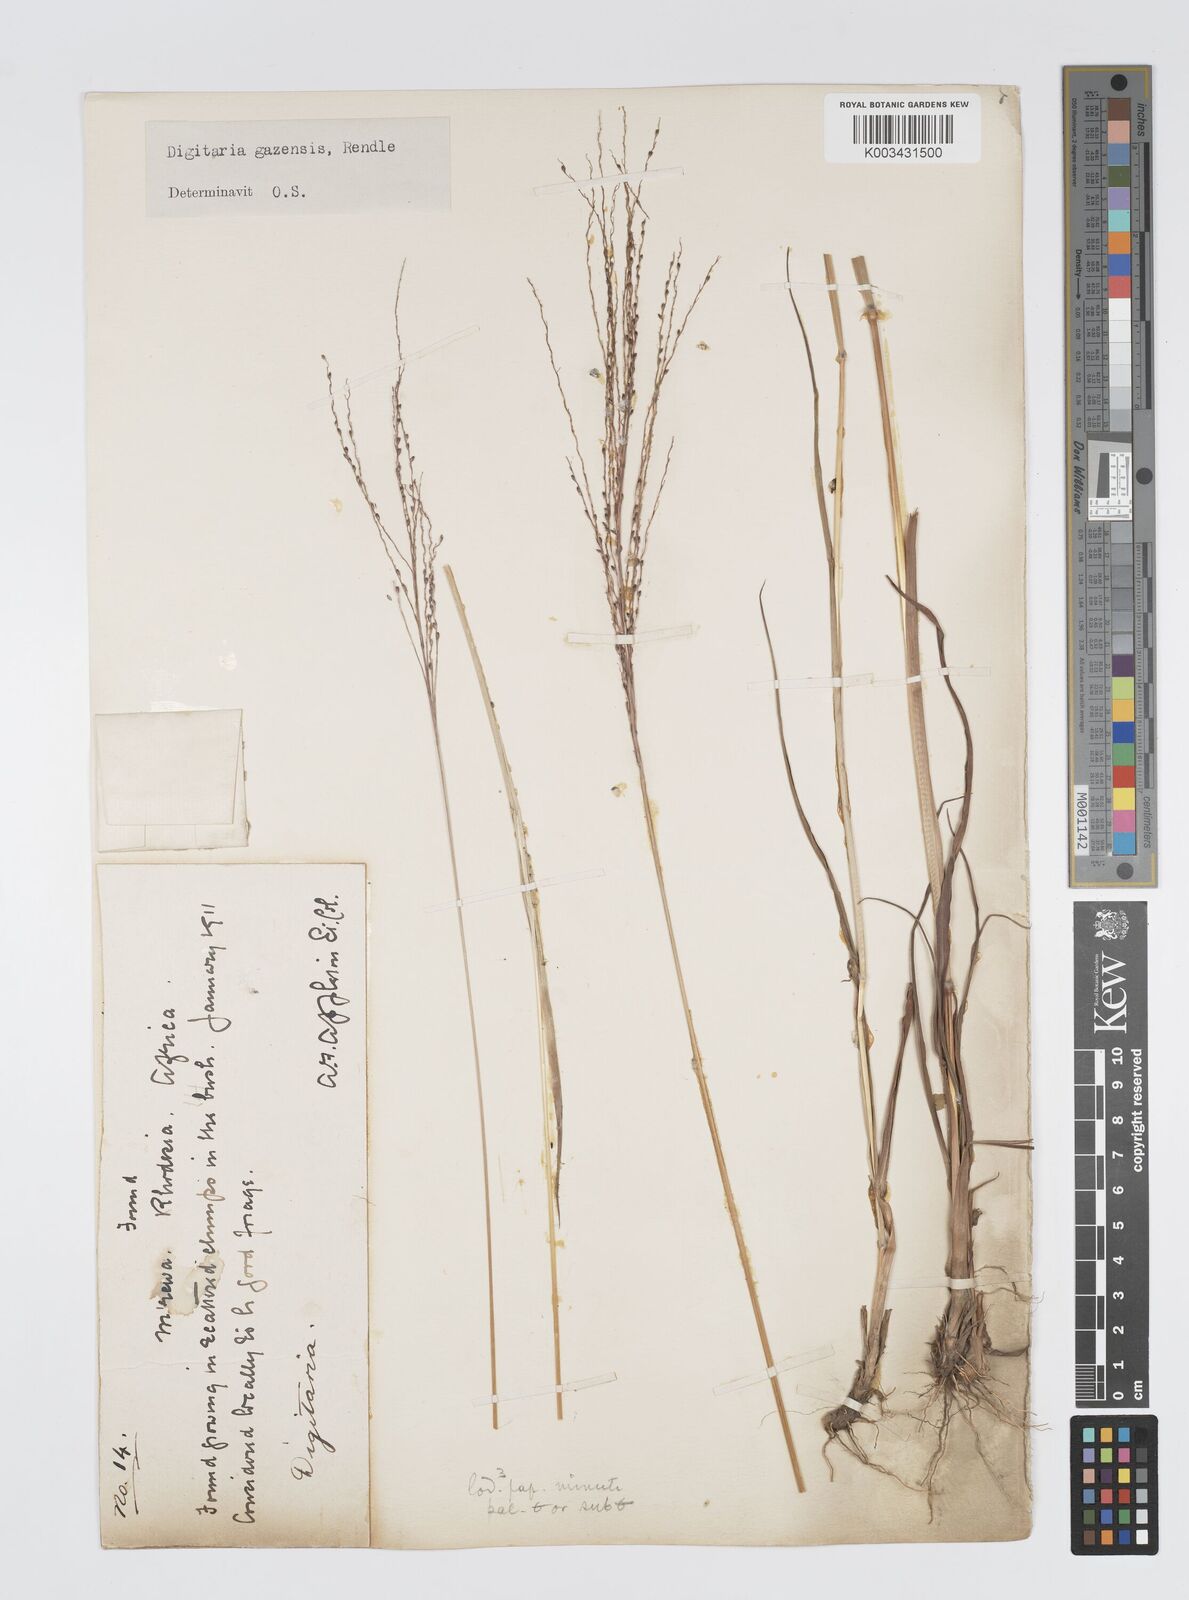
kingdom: Plantae
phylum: Tracheophyta
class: Liliopsida
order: Poales
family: Poaceae
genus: Digitaria
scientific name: Digitaria gazensis
